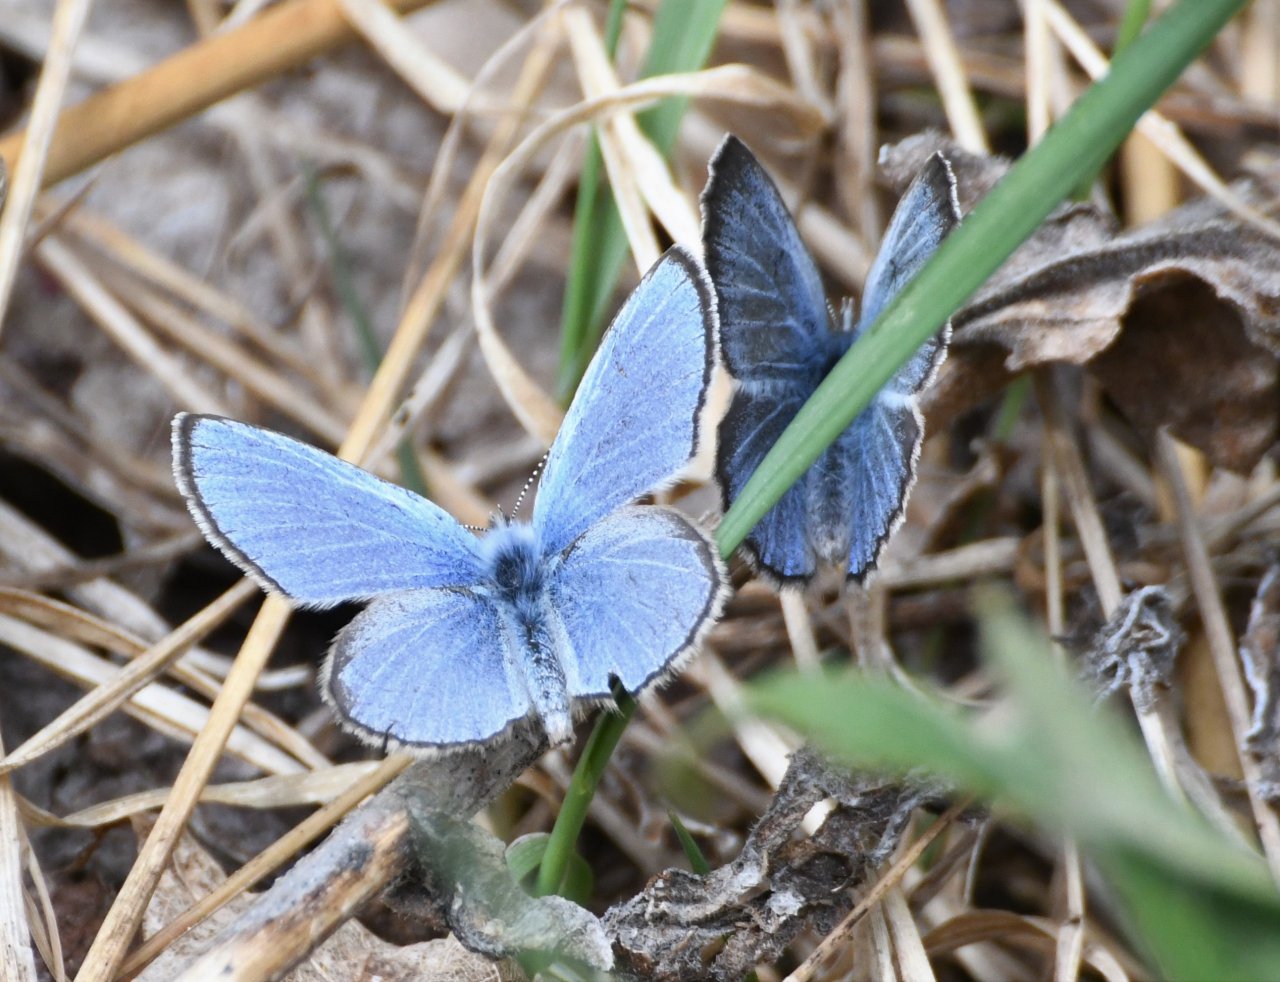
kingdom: Animalia
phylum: Arthropoda
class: Insecta
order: Lepidoptera
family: Lycaenidae
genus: Glaucopsyche
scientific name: Glaucopsyche lygdamus
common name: Silvery Blue
